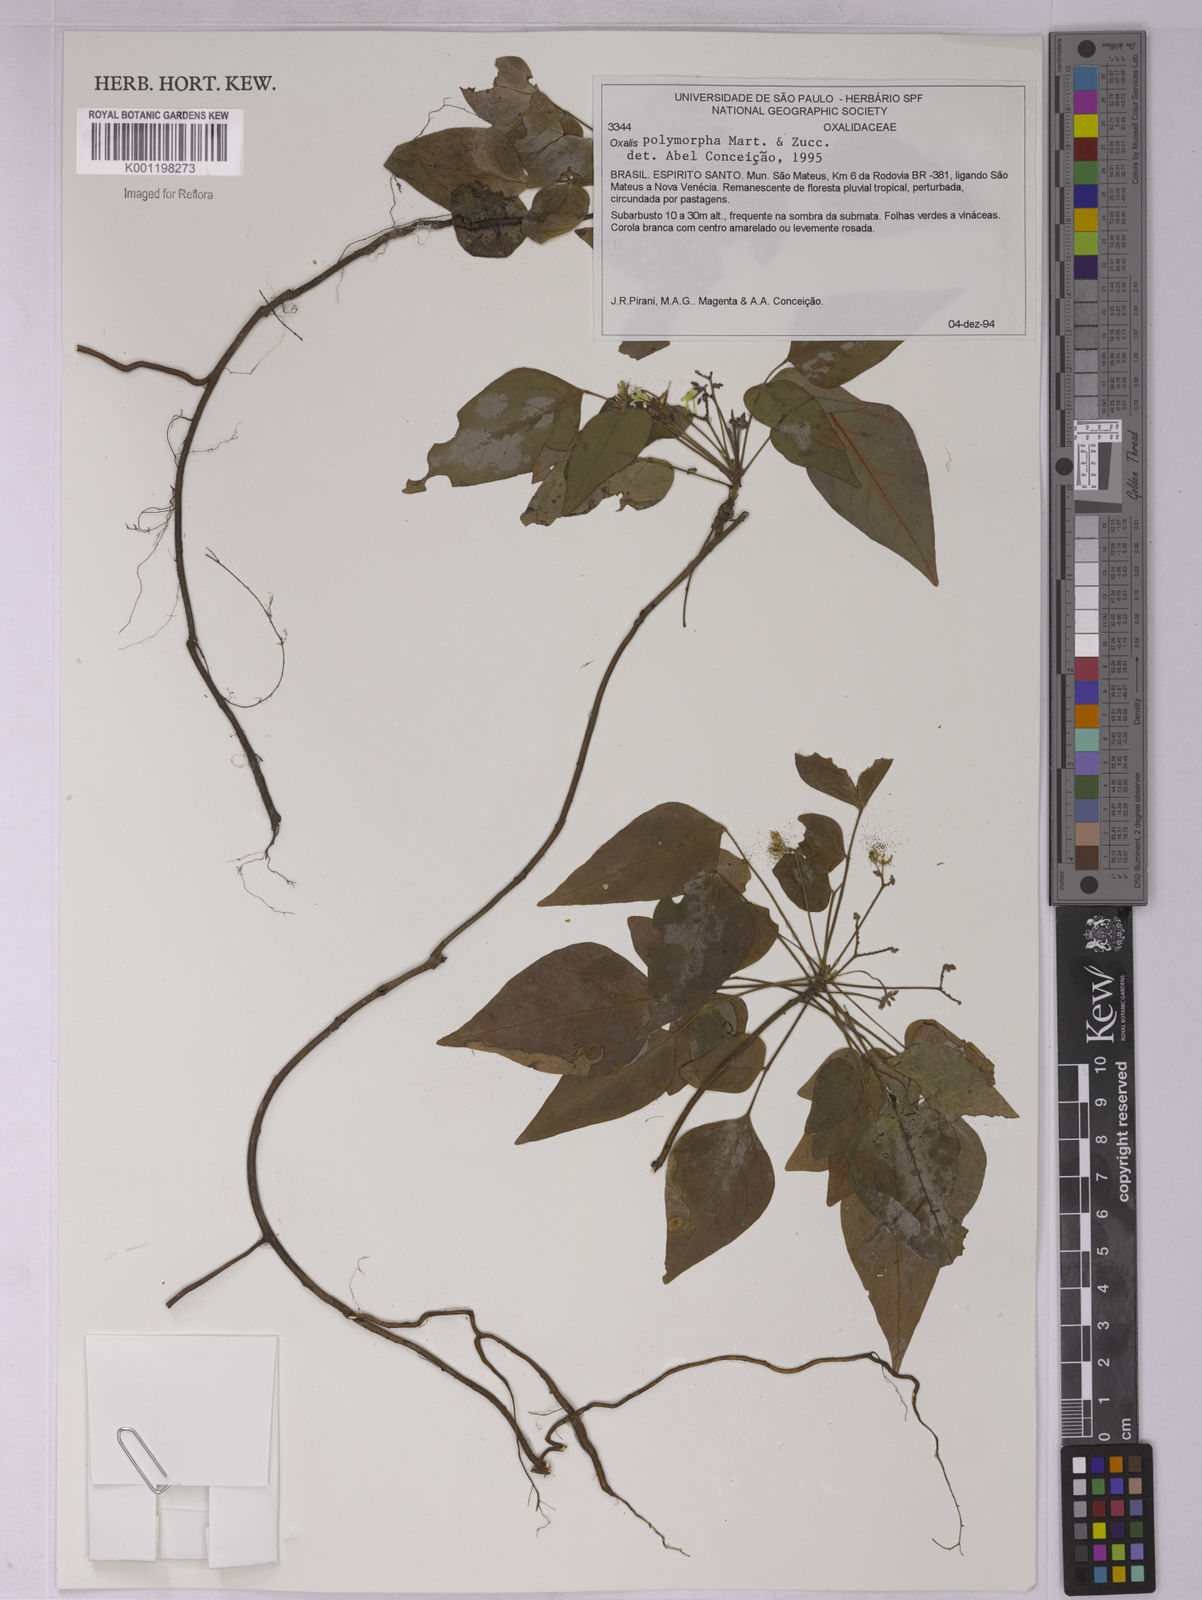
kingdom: Plantae
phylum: Tracheophyta
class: Magnoliopsida
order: Oxalidales
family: Oxalidaceae
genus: Oxalis
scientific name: Oxalis rhombeo-ovata
